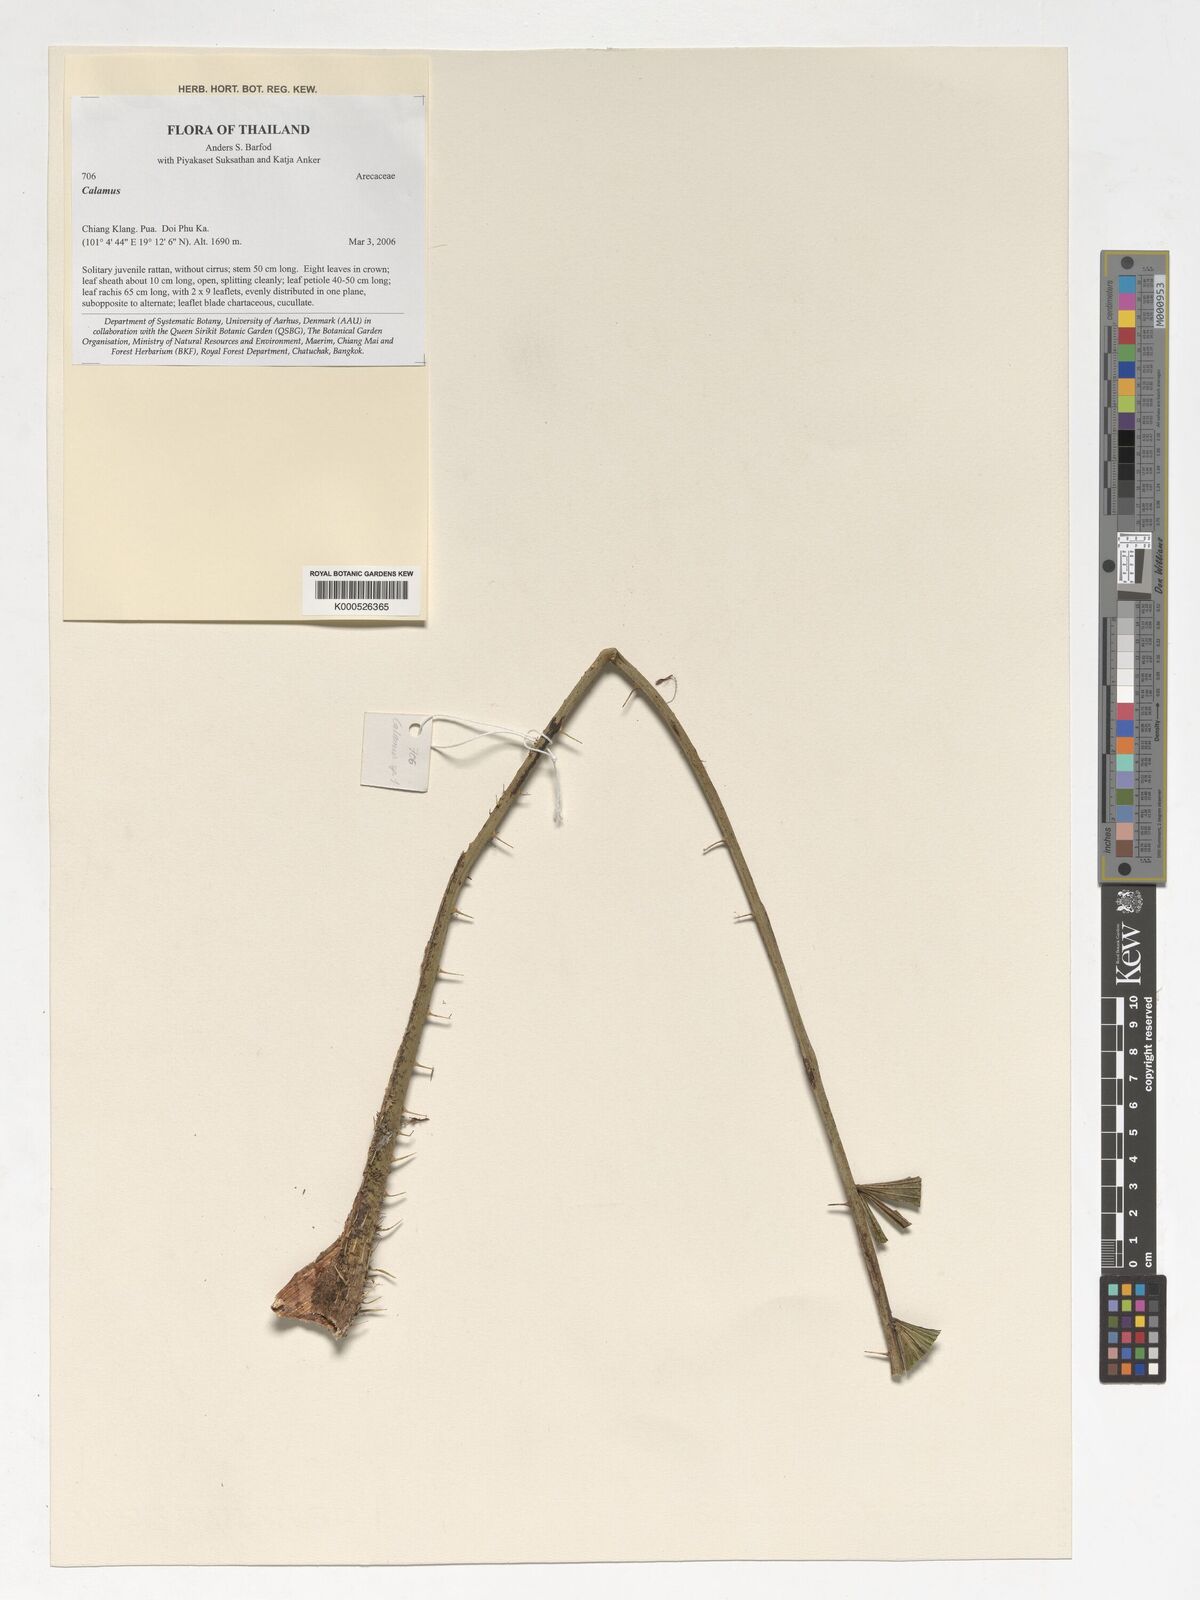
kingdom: Plantae
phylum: Tracheophyta
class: Liliopsida
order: Arecales
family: Arecaceae
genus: Calamus
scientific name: Calamus
